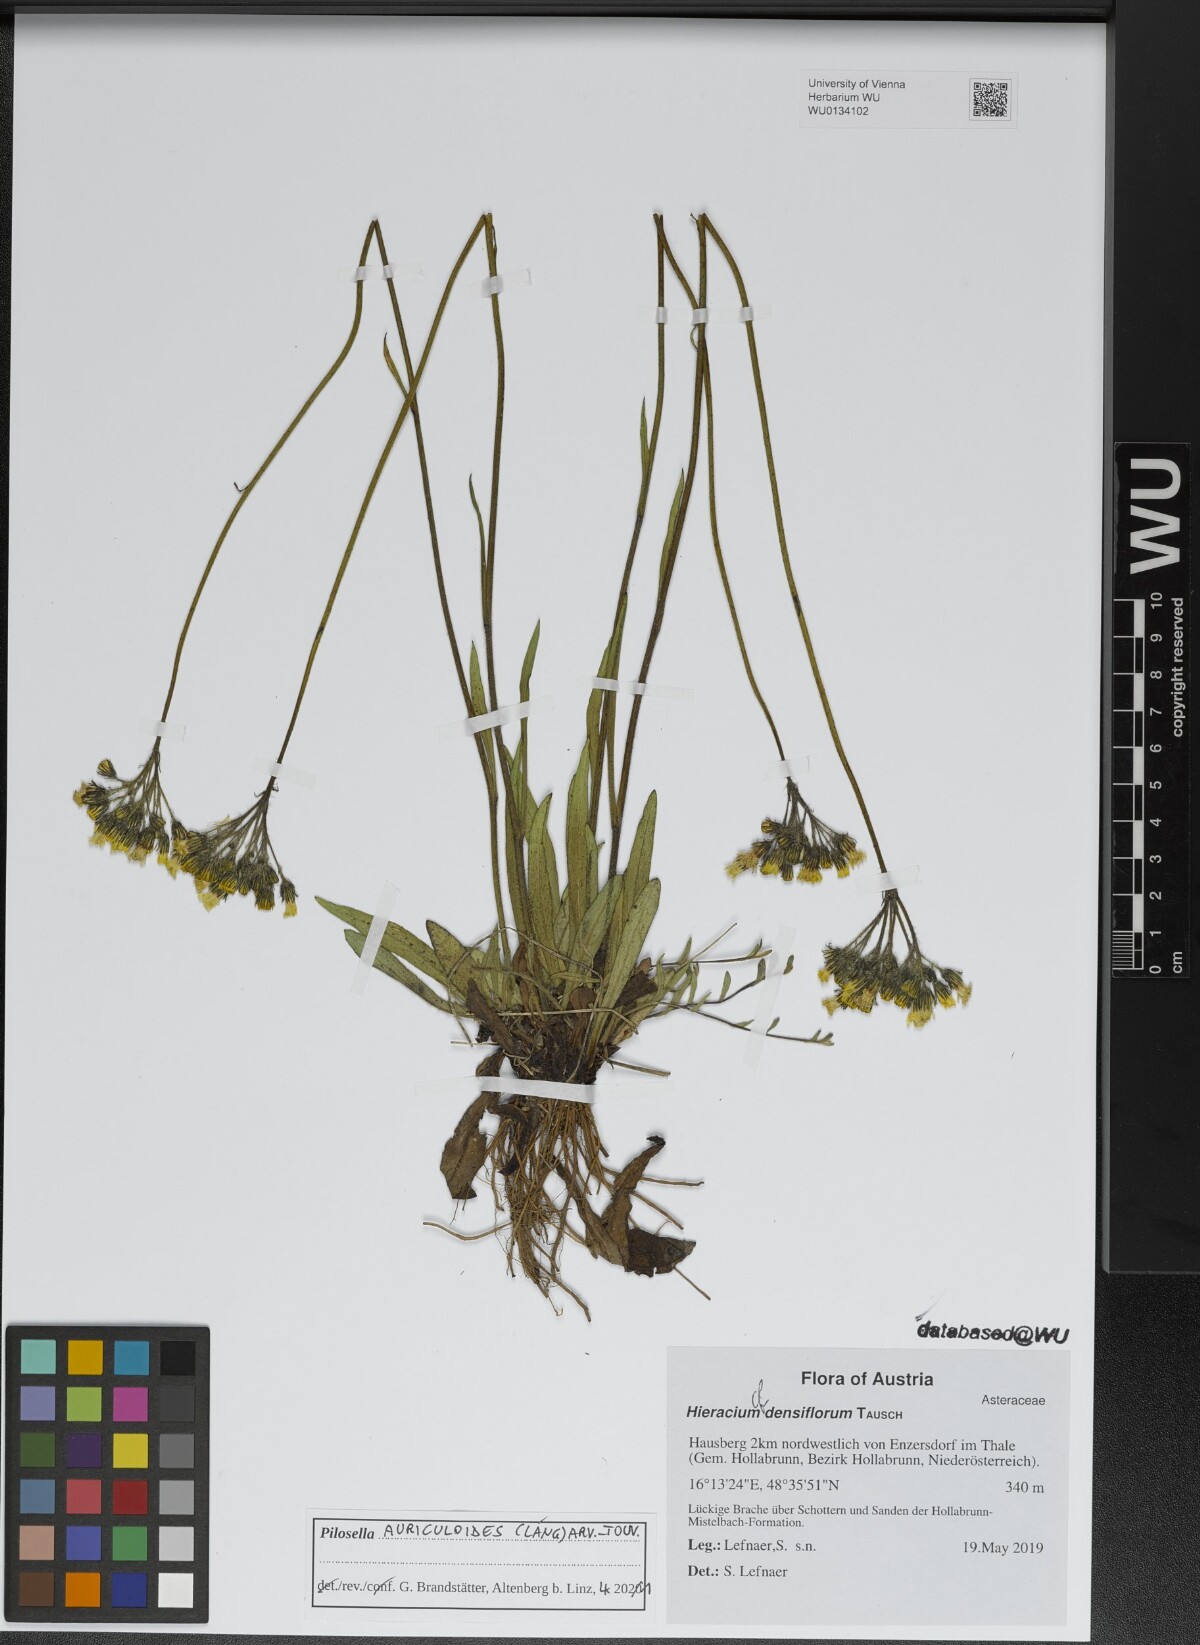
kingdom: Plantae
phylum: Tracheophyta
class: Magnoliopsida
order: Asterales
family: Asteraceae
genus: Pilosella
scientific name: Pilosella auriculoides
